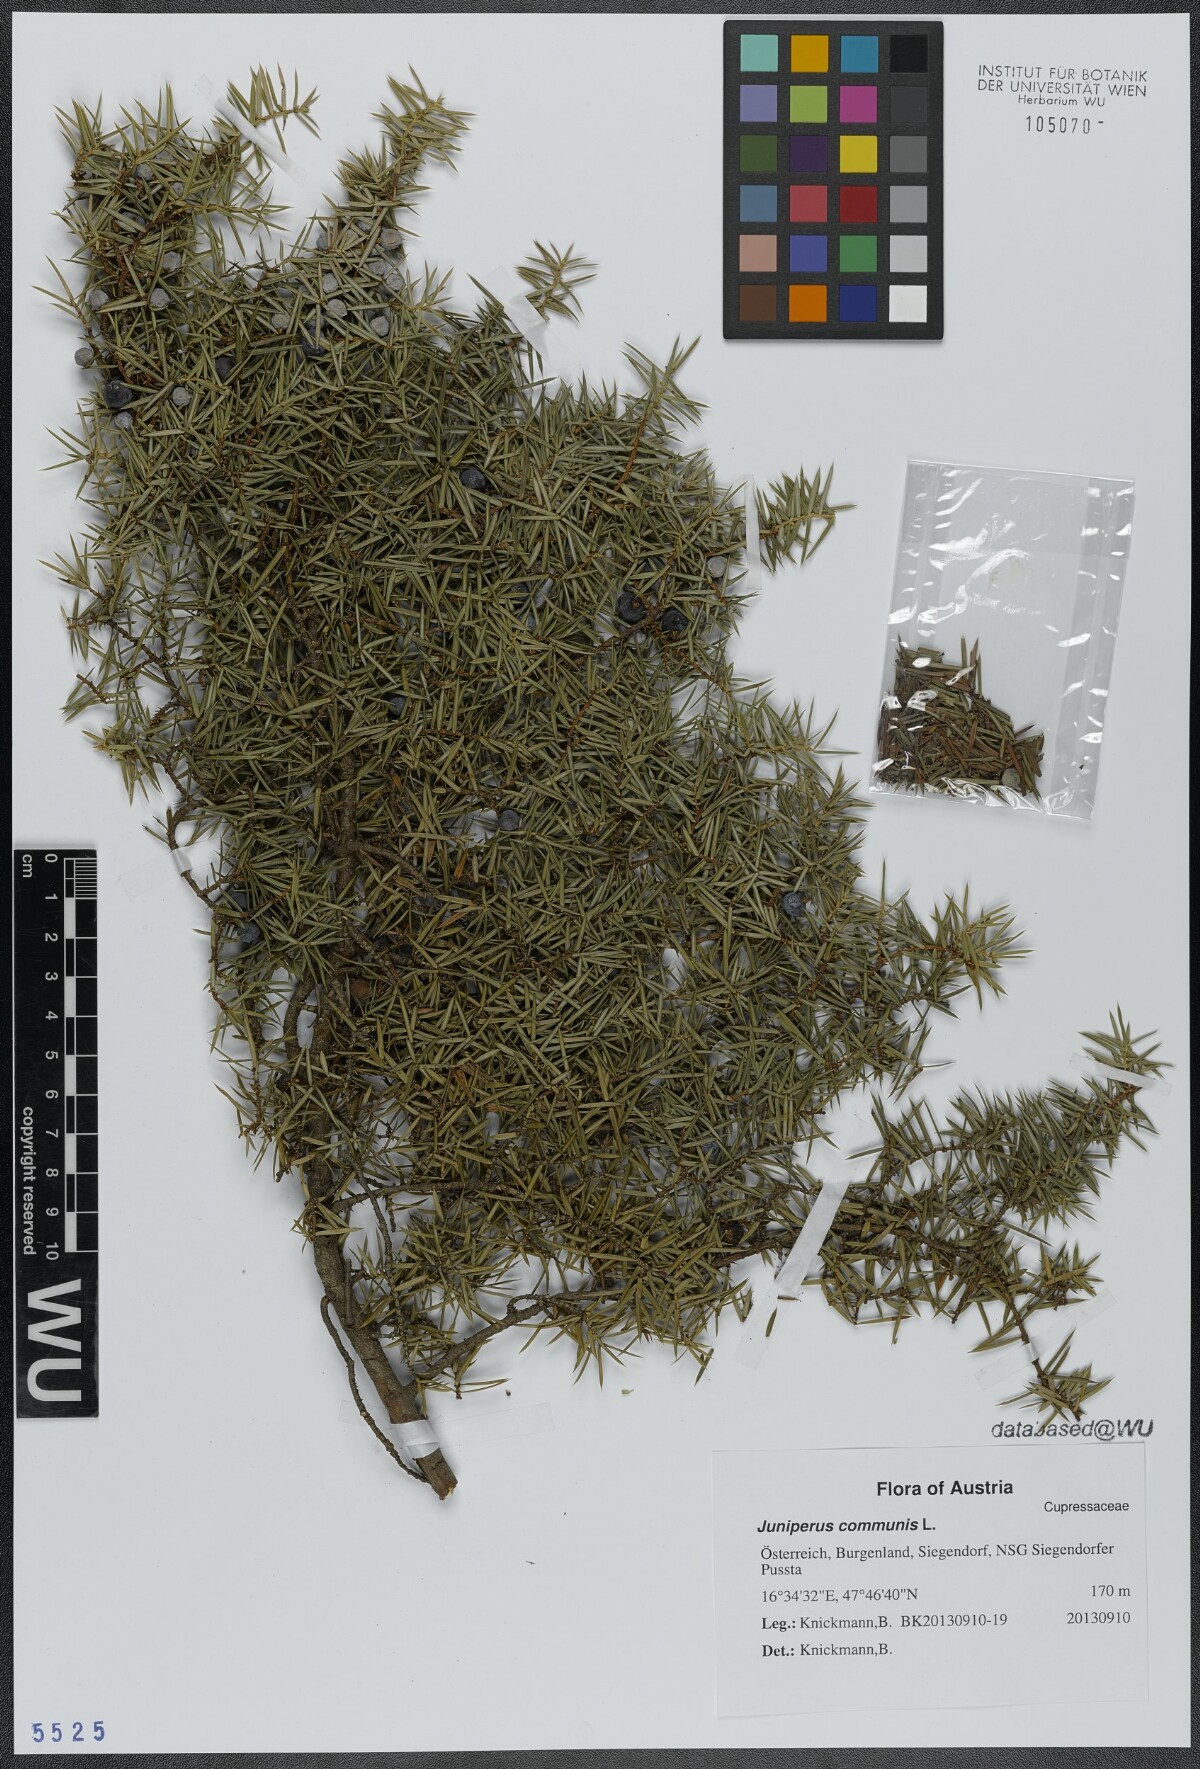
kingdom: Plantae
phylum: Tracheophyta
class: Pinopsida
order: Pinales
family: Cupressaceae
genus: Juniperus
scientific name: Juniperus communis
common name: Common juniper
